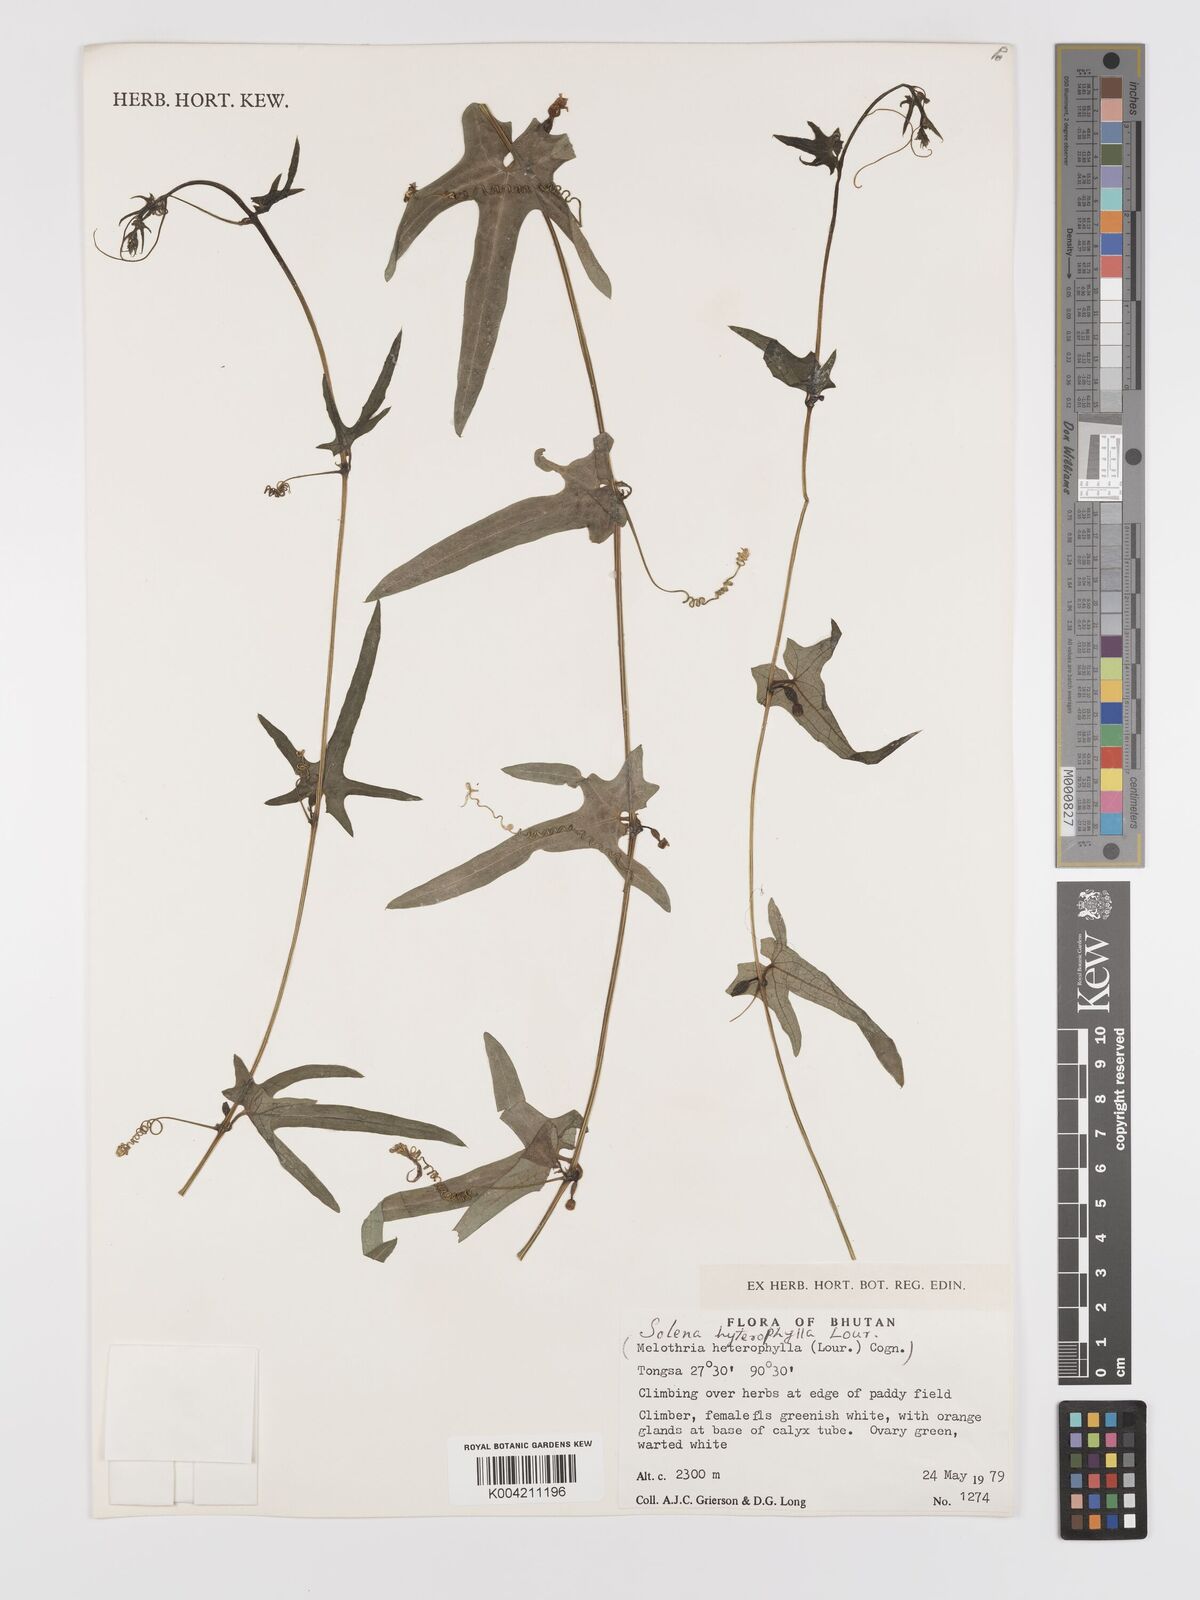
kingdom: Plantae
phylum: Tracheophyta
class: Magnoliopsida
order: Cucurbitales
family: Cucurbitaceae
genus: Solena
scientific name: Solena amplexicaulis
